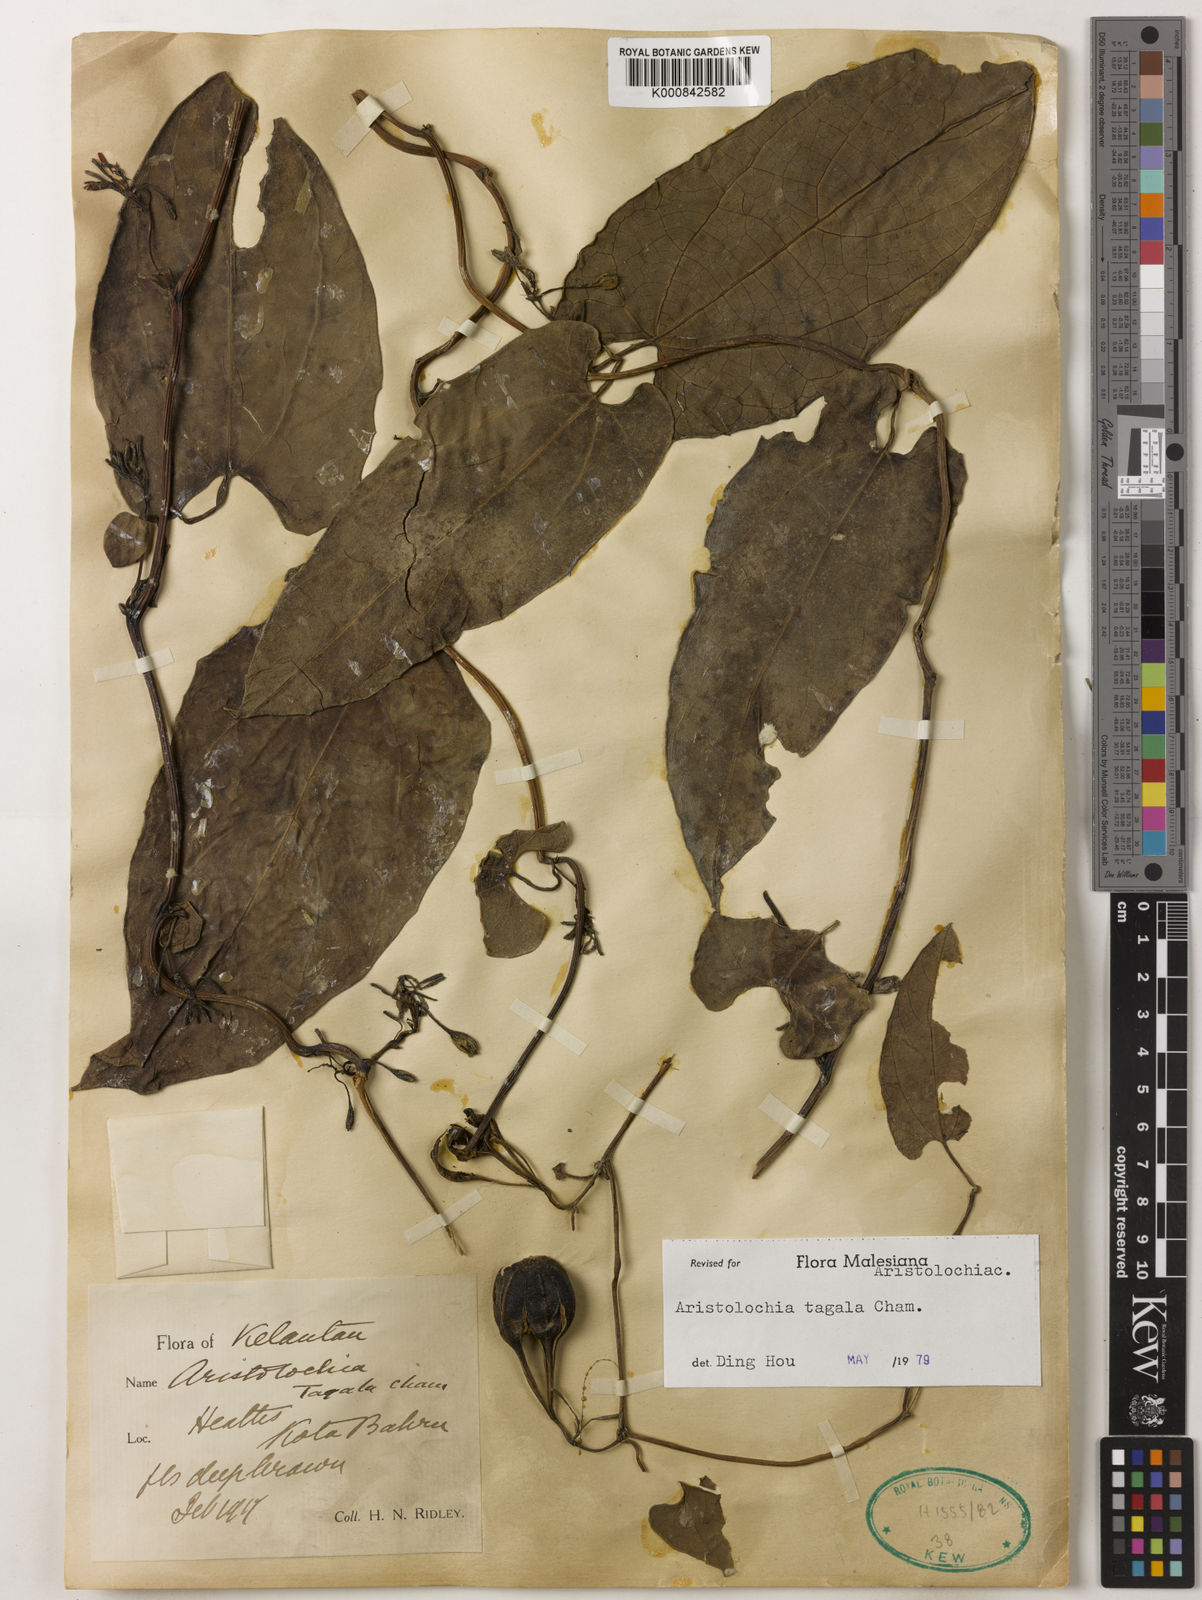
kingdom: Plantae
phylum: Tracheophyta
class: Magnoliopsida
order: Piperales
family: Aristolochiaceae
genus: Aristolochia
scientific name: Aristolochia acuminata
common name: Indian birthwort
